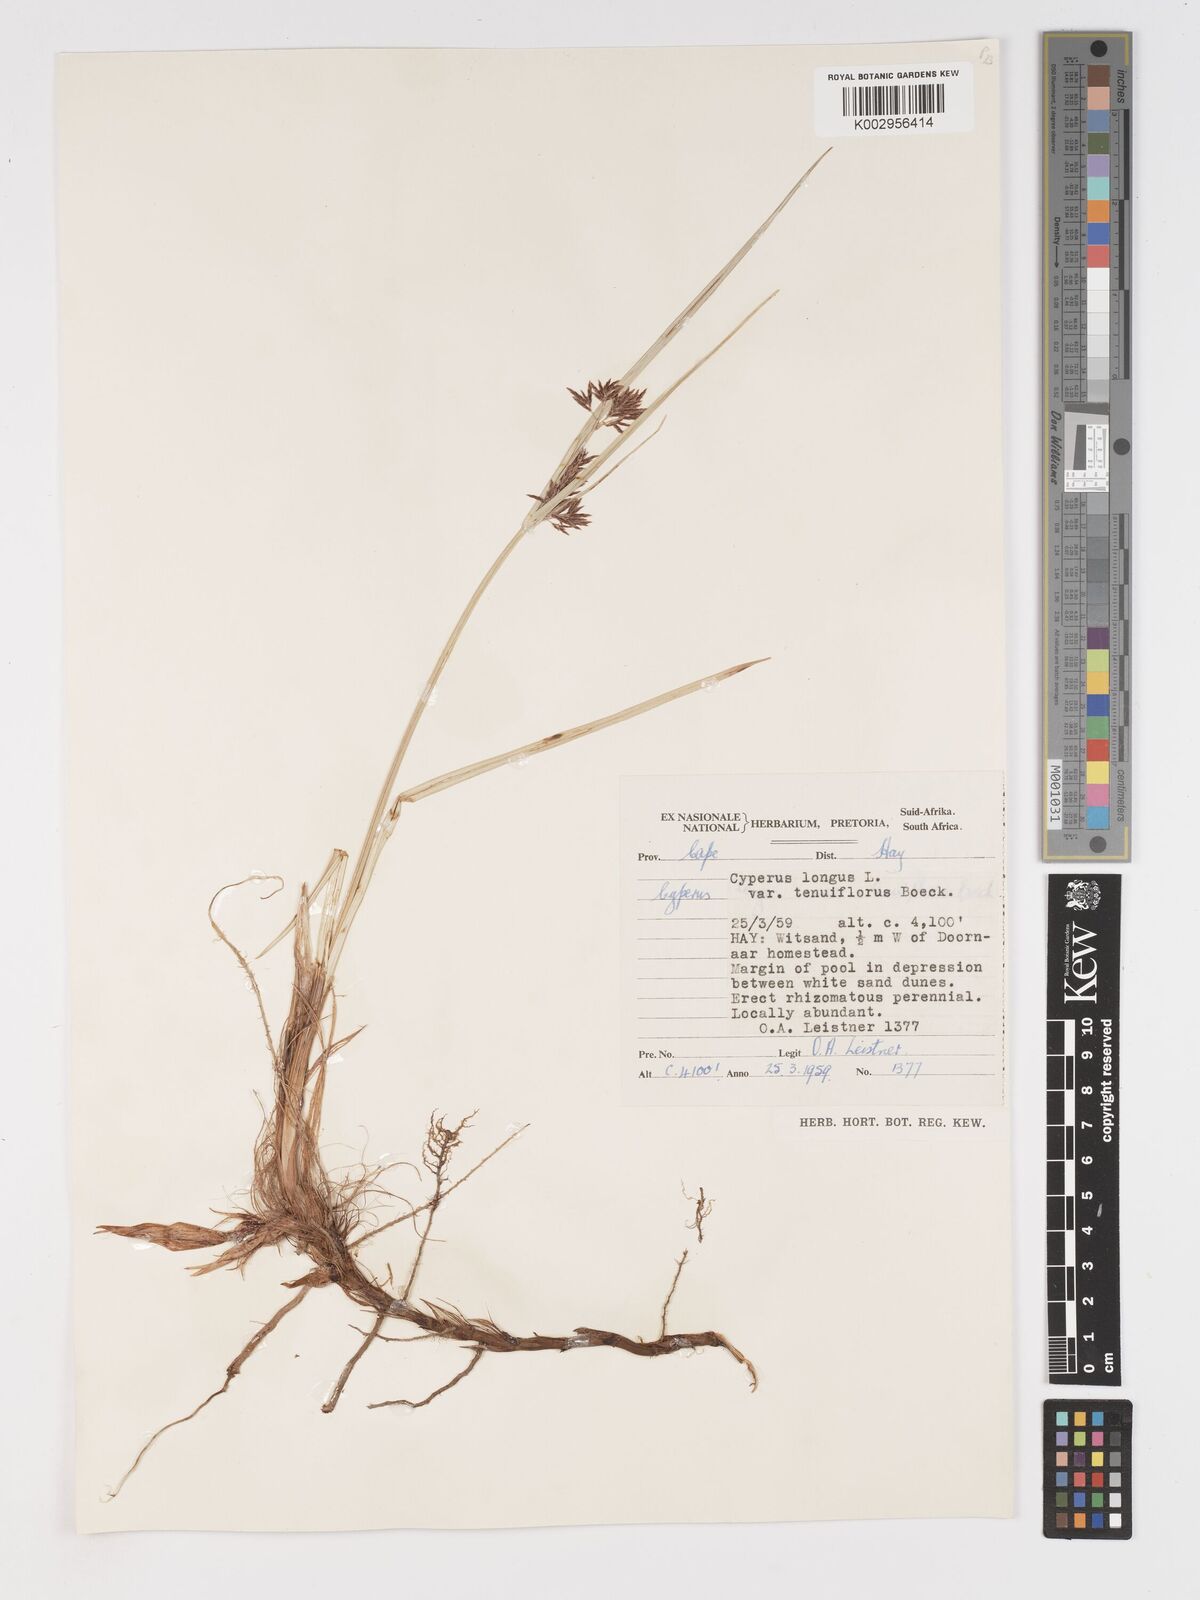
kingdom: Plantae
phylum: Tracheophyta
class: Liliopsida
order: Poales
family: Cyperaceae
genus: Cyperus
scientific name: Cyperus longus
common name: Galingale
